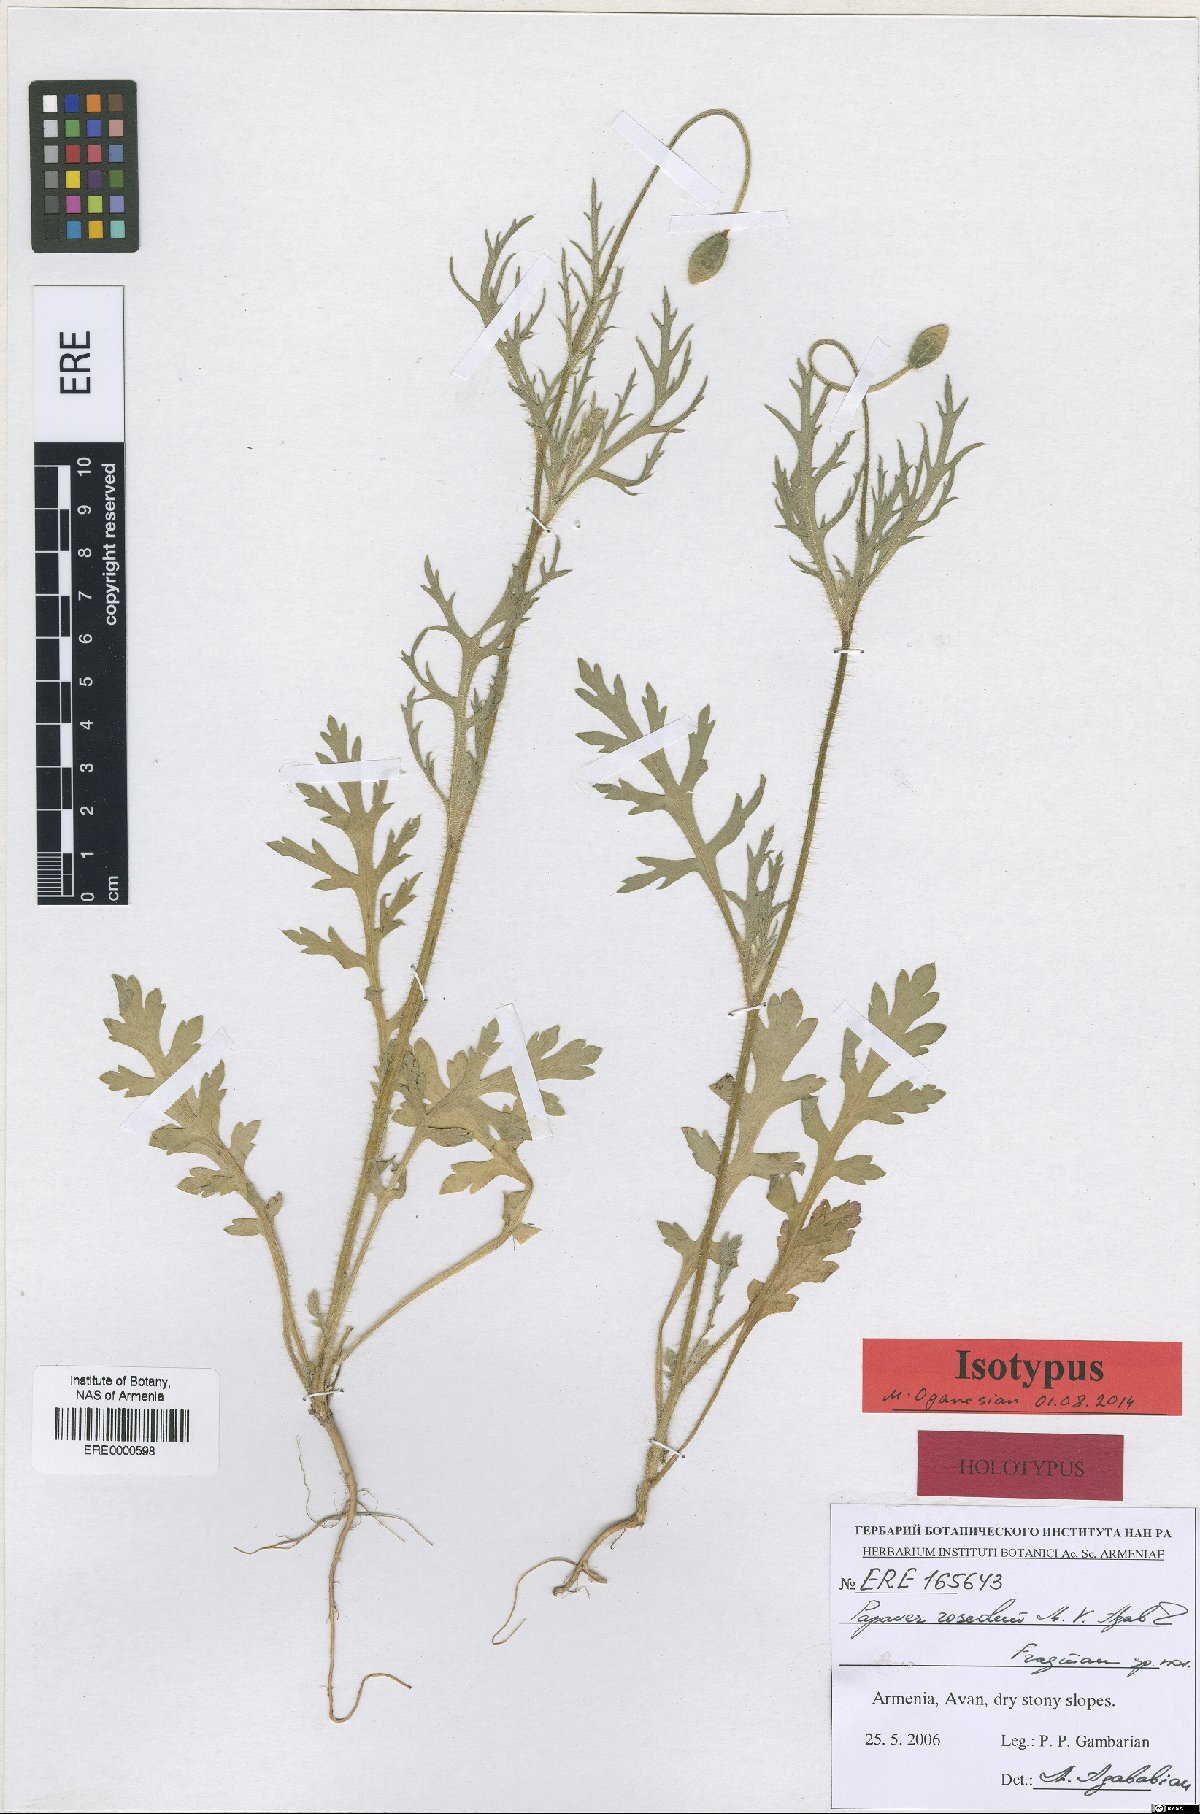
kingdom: Plantae
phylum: Tracheophyta
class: Magnoliopsida
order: Ranunculales
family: Papaveraceae
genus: Papaver
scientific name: Papaver roseolum
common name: Pinkish poppy
